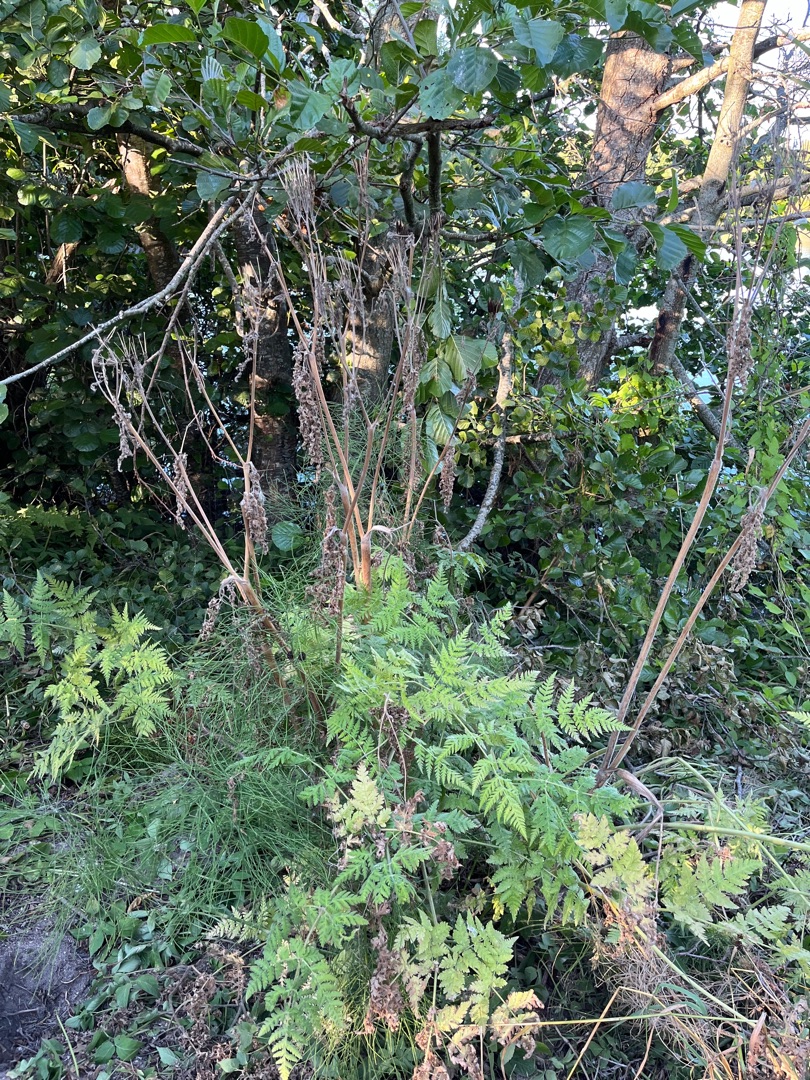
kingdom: Plantae
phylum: Tracheophyta
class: Magnoliopsida
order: Apiales
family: Apiaceae
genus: Myrrhis
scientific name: Myrrhis odorata
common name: Sødskærm
